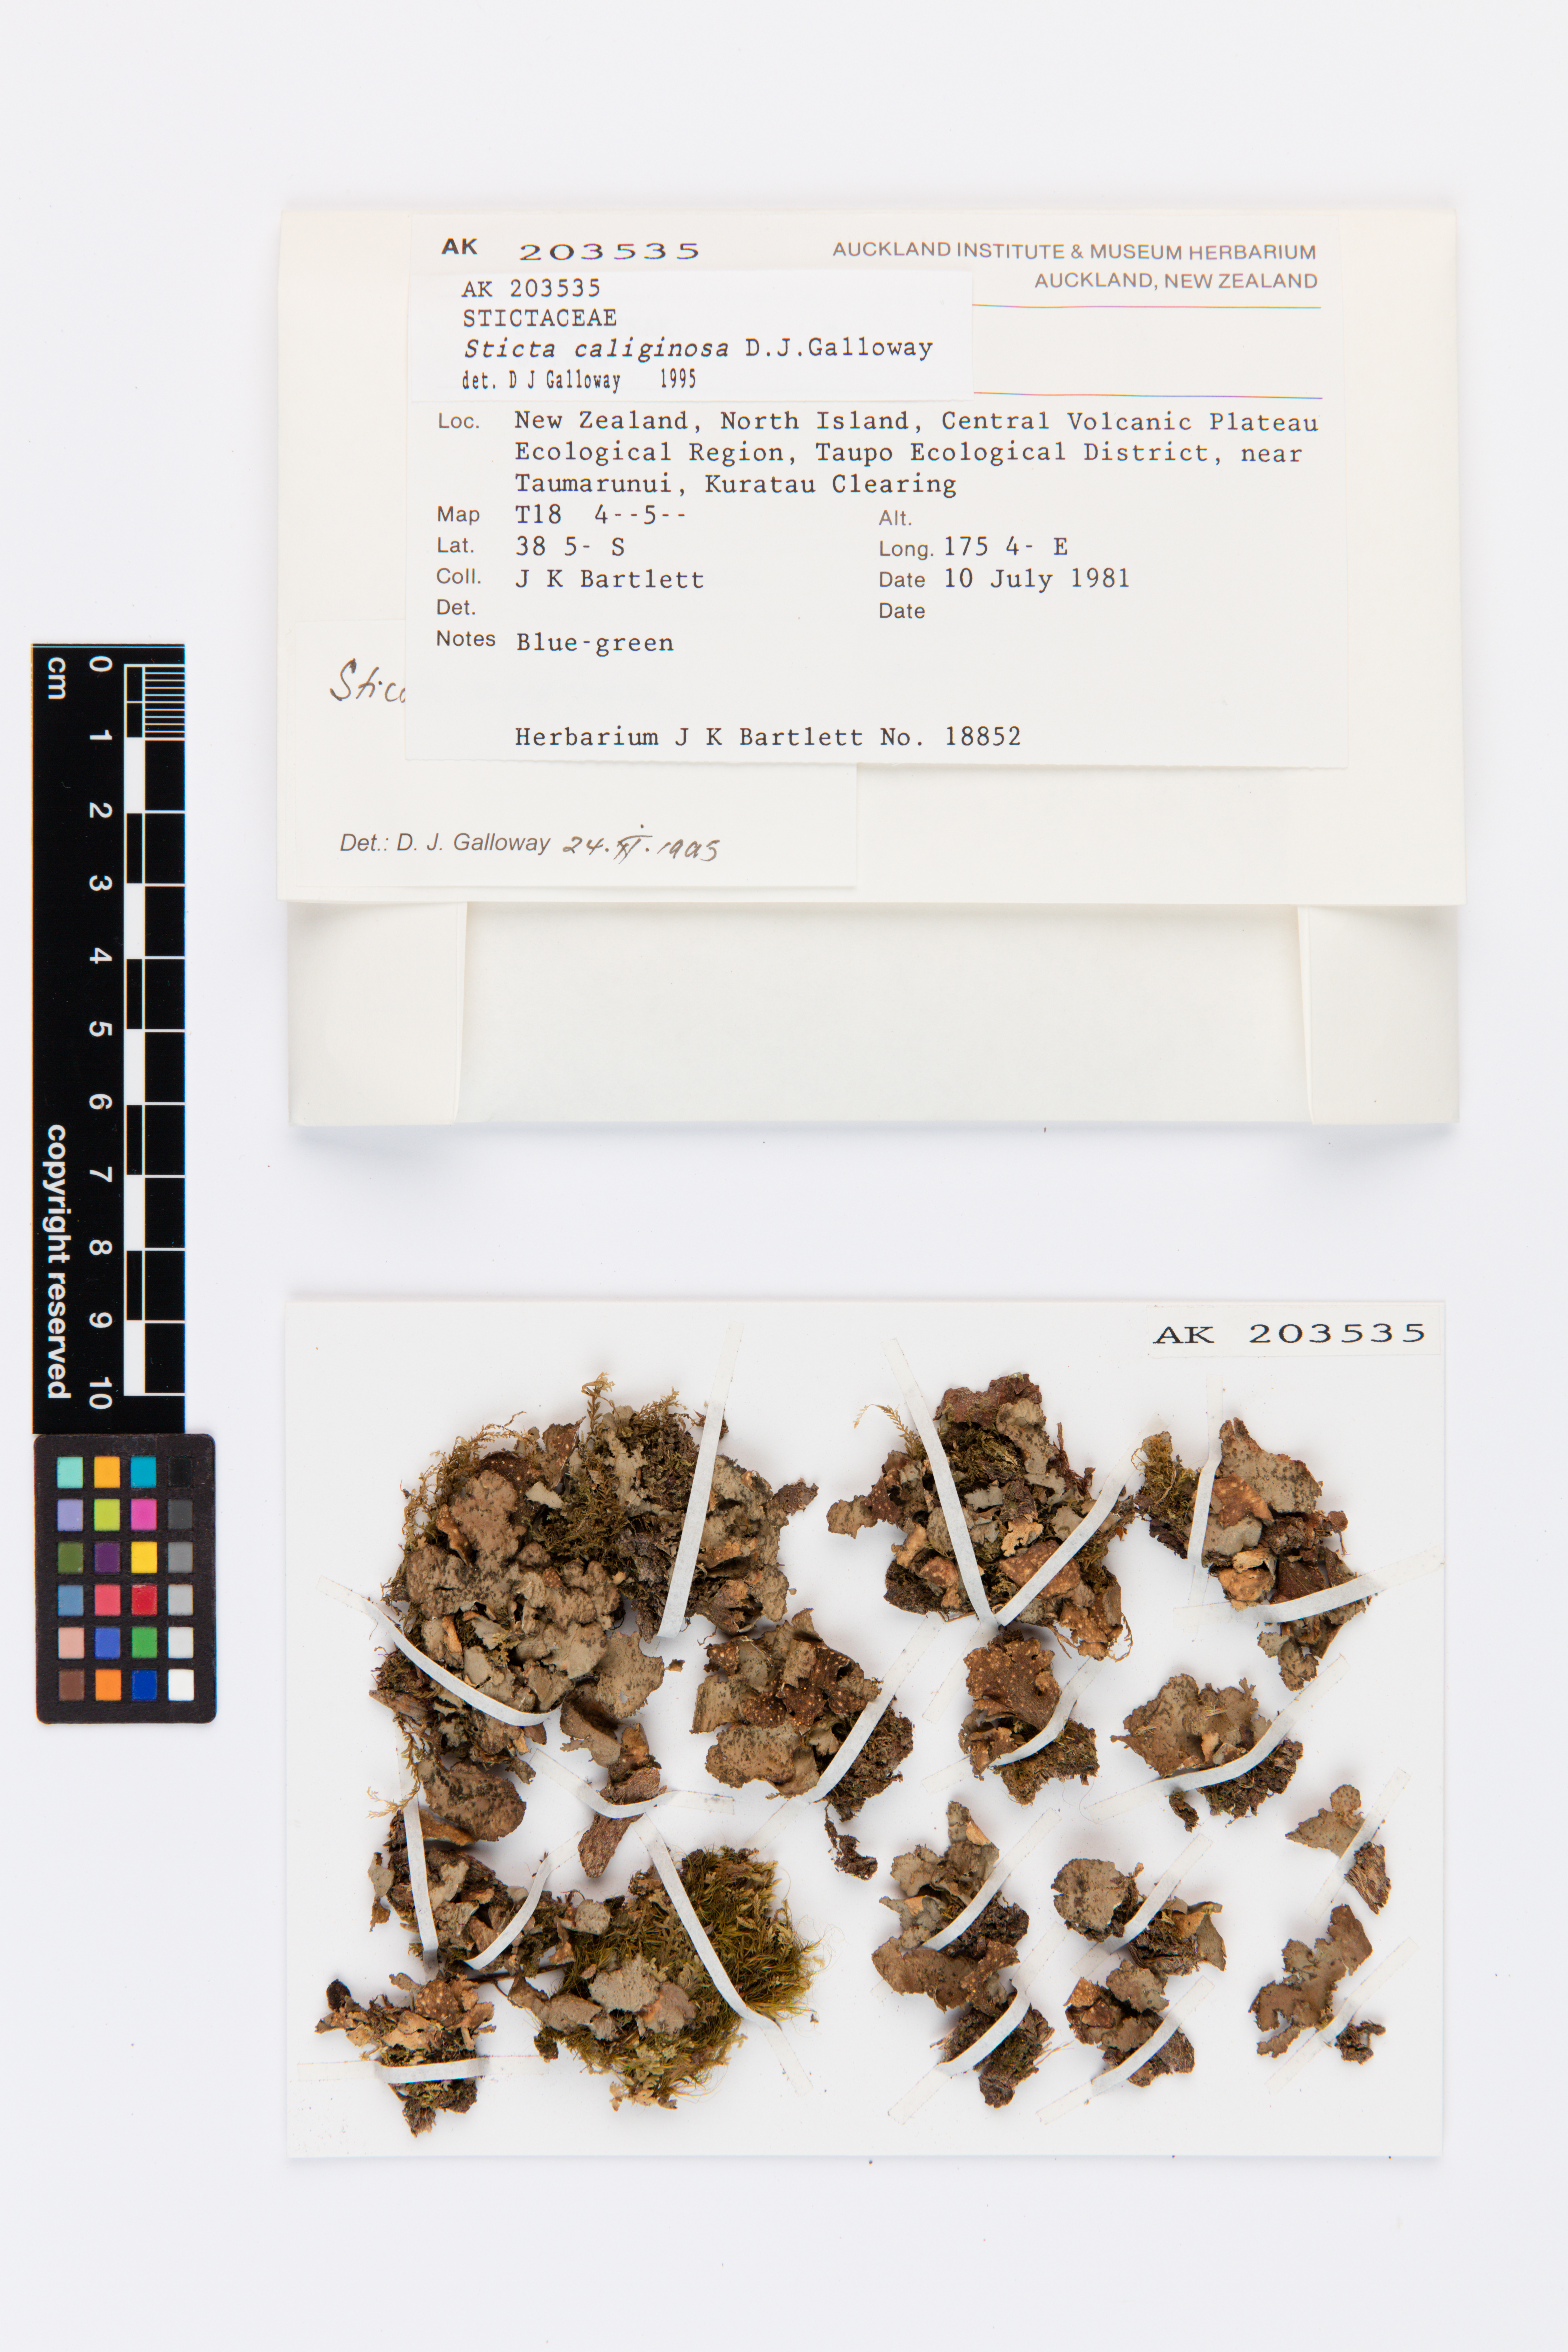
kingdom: Fungi
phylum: Ascomycota
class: Lecanoromycetes
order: Peltigerales
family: Lobariaceae
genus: Sticta
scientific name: Sticta caliginosa
